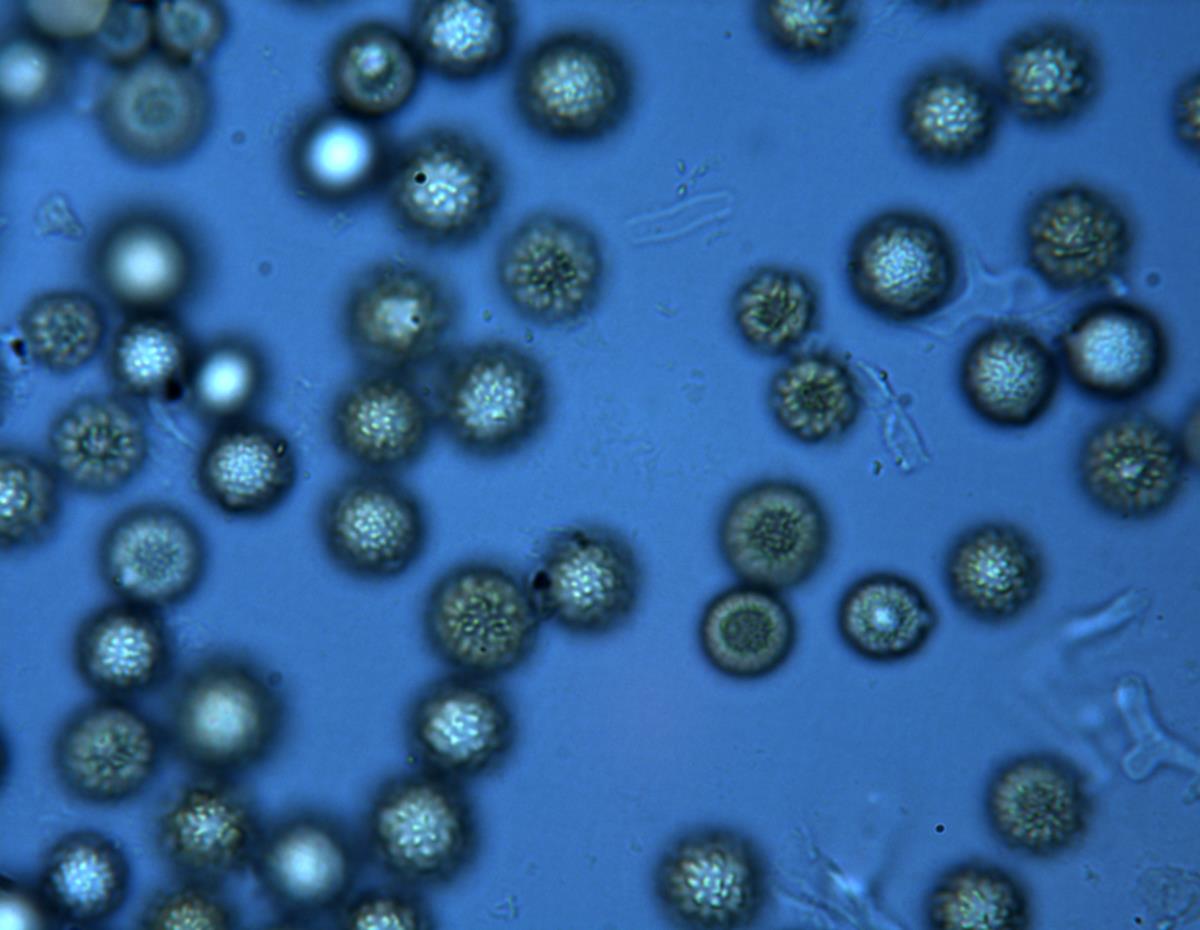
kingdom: Fungi
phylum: Basidiomycota
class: Agaricomycetes
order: Boletales
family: Sclerodermataceae
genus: Pisolithus
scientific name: Pisolithus
